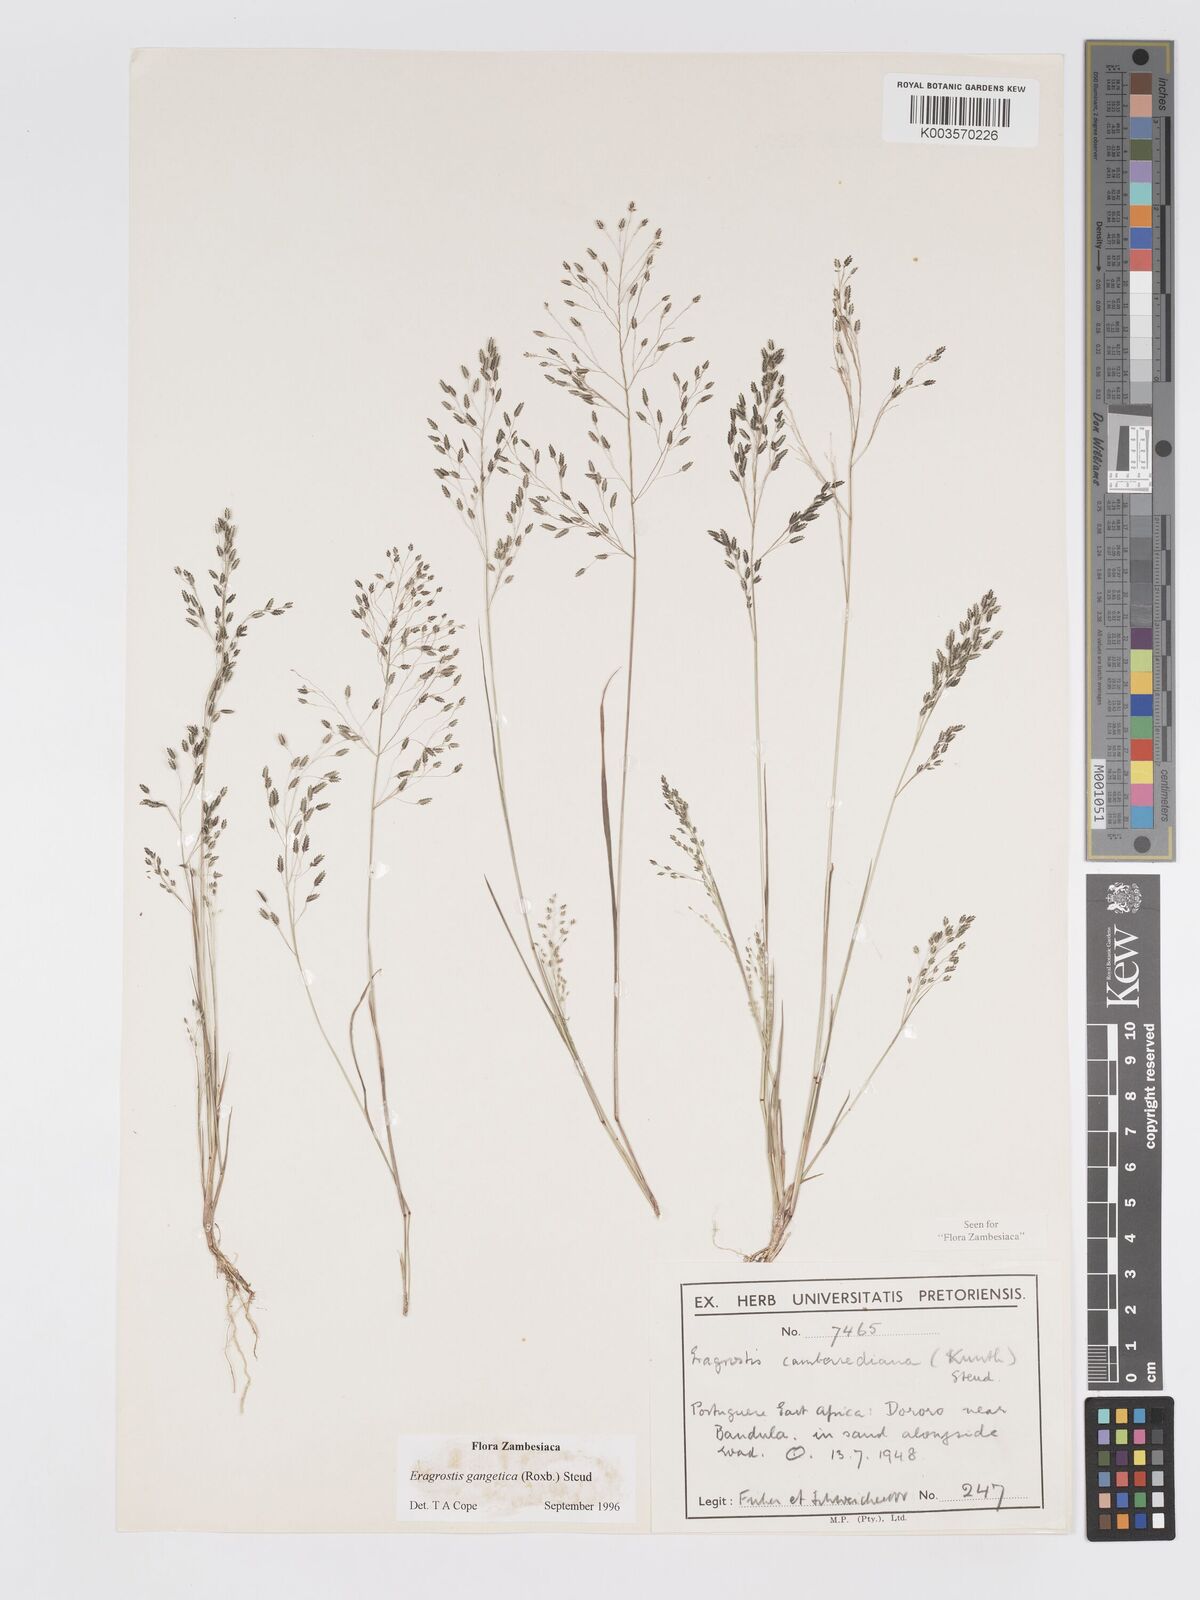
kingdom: Plantae
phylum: Tracheophyta
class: Liliopsida
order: Poales
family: Poaceae
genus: Eragrostis
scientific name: Eragrostis gangetica
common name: Slimflower lovegrass
